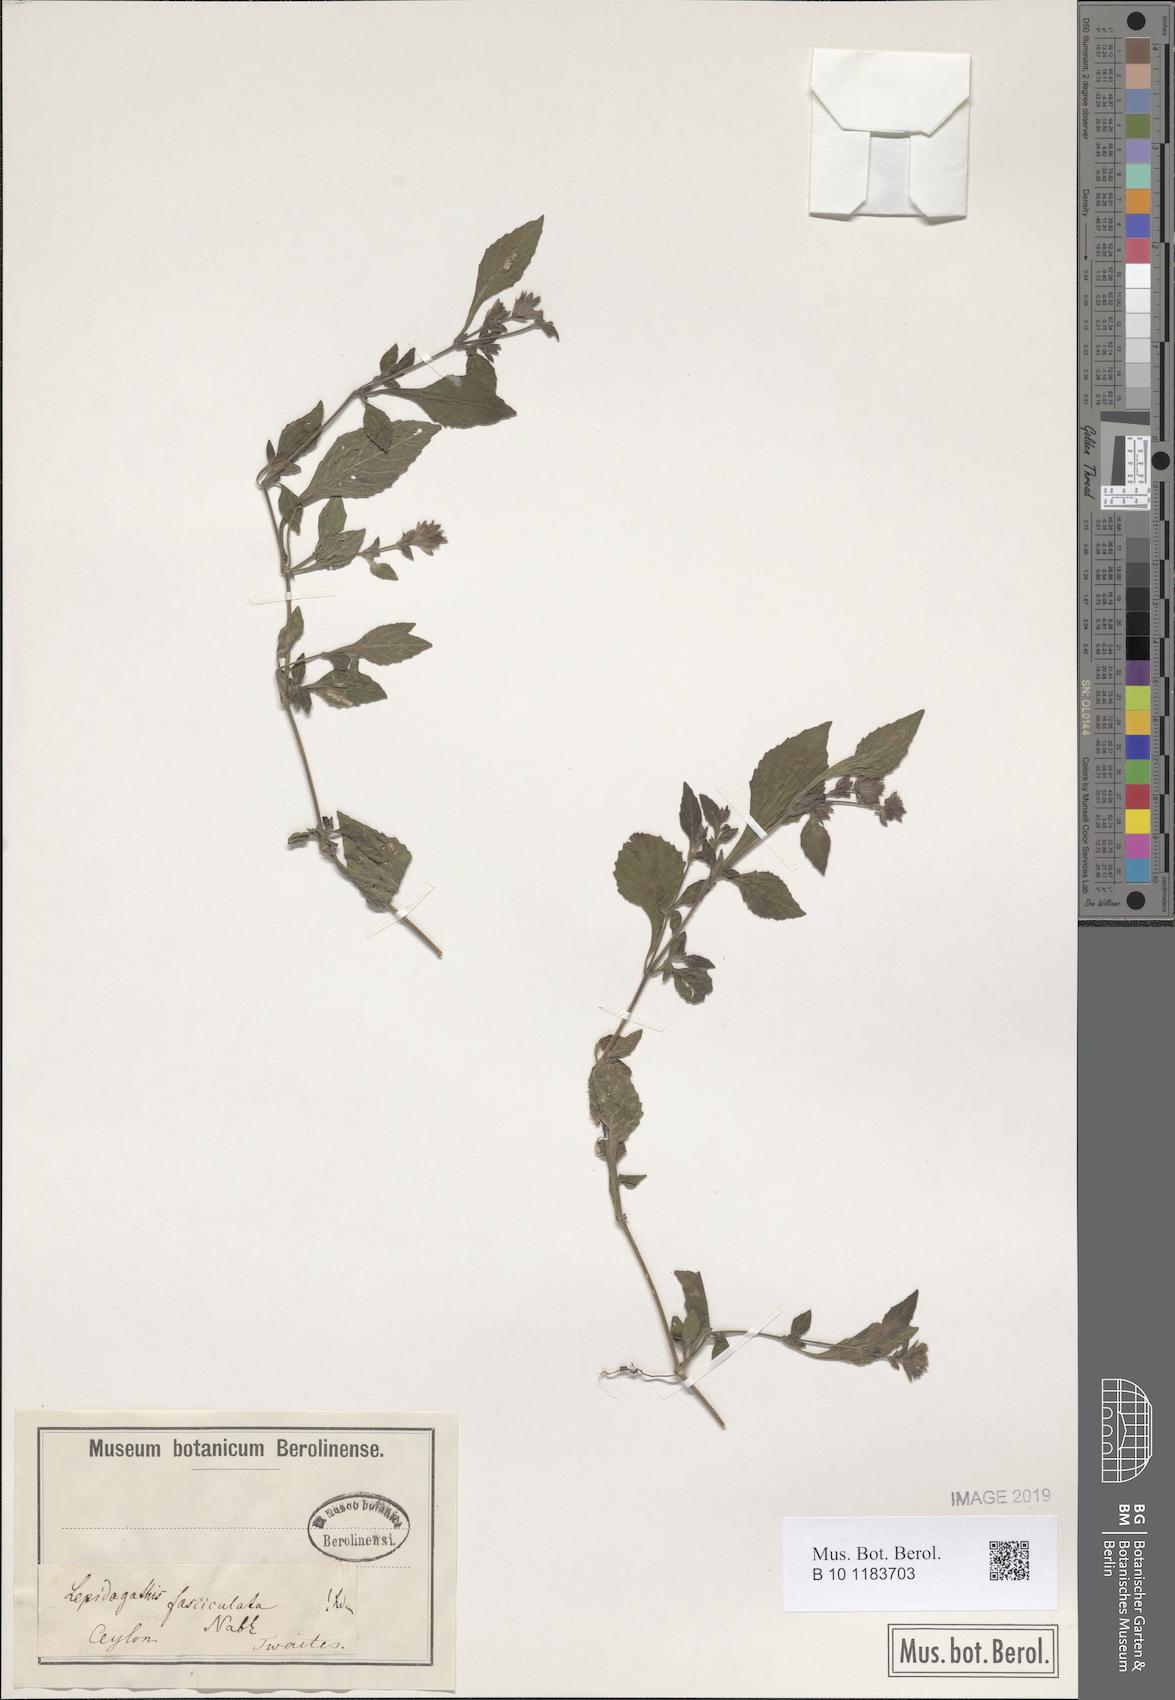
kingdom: Plantae
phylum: Tracheophyta
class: Magnoliopsida
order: Lamiales
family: Acanthaceae
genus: Lepidagathis
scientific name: Lepidagathis fasciculata
